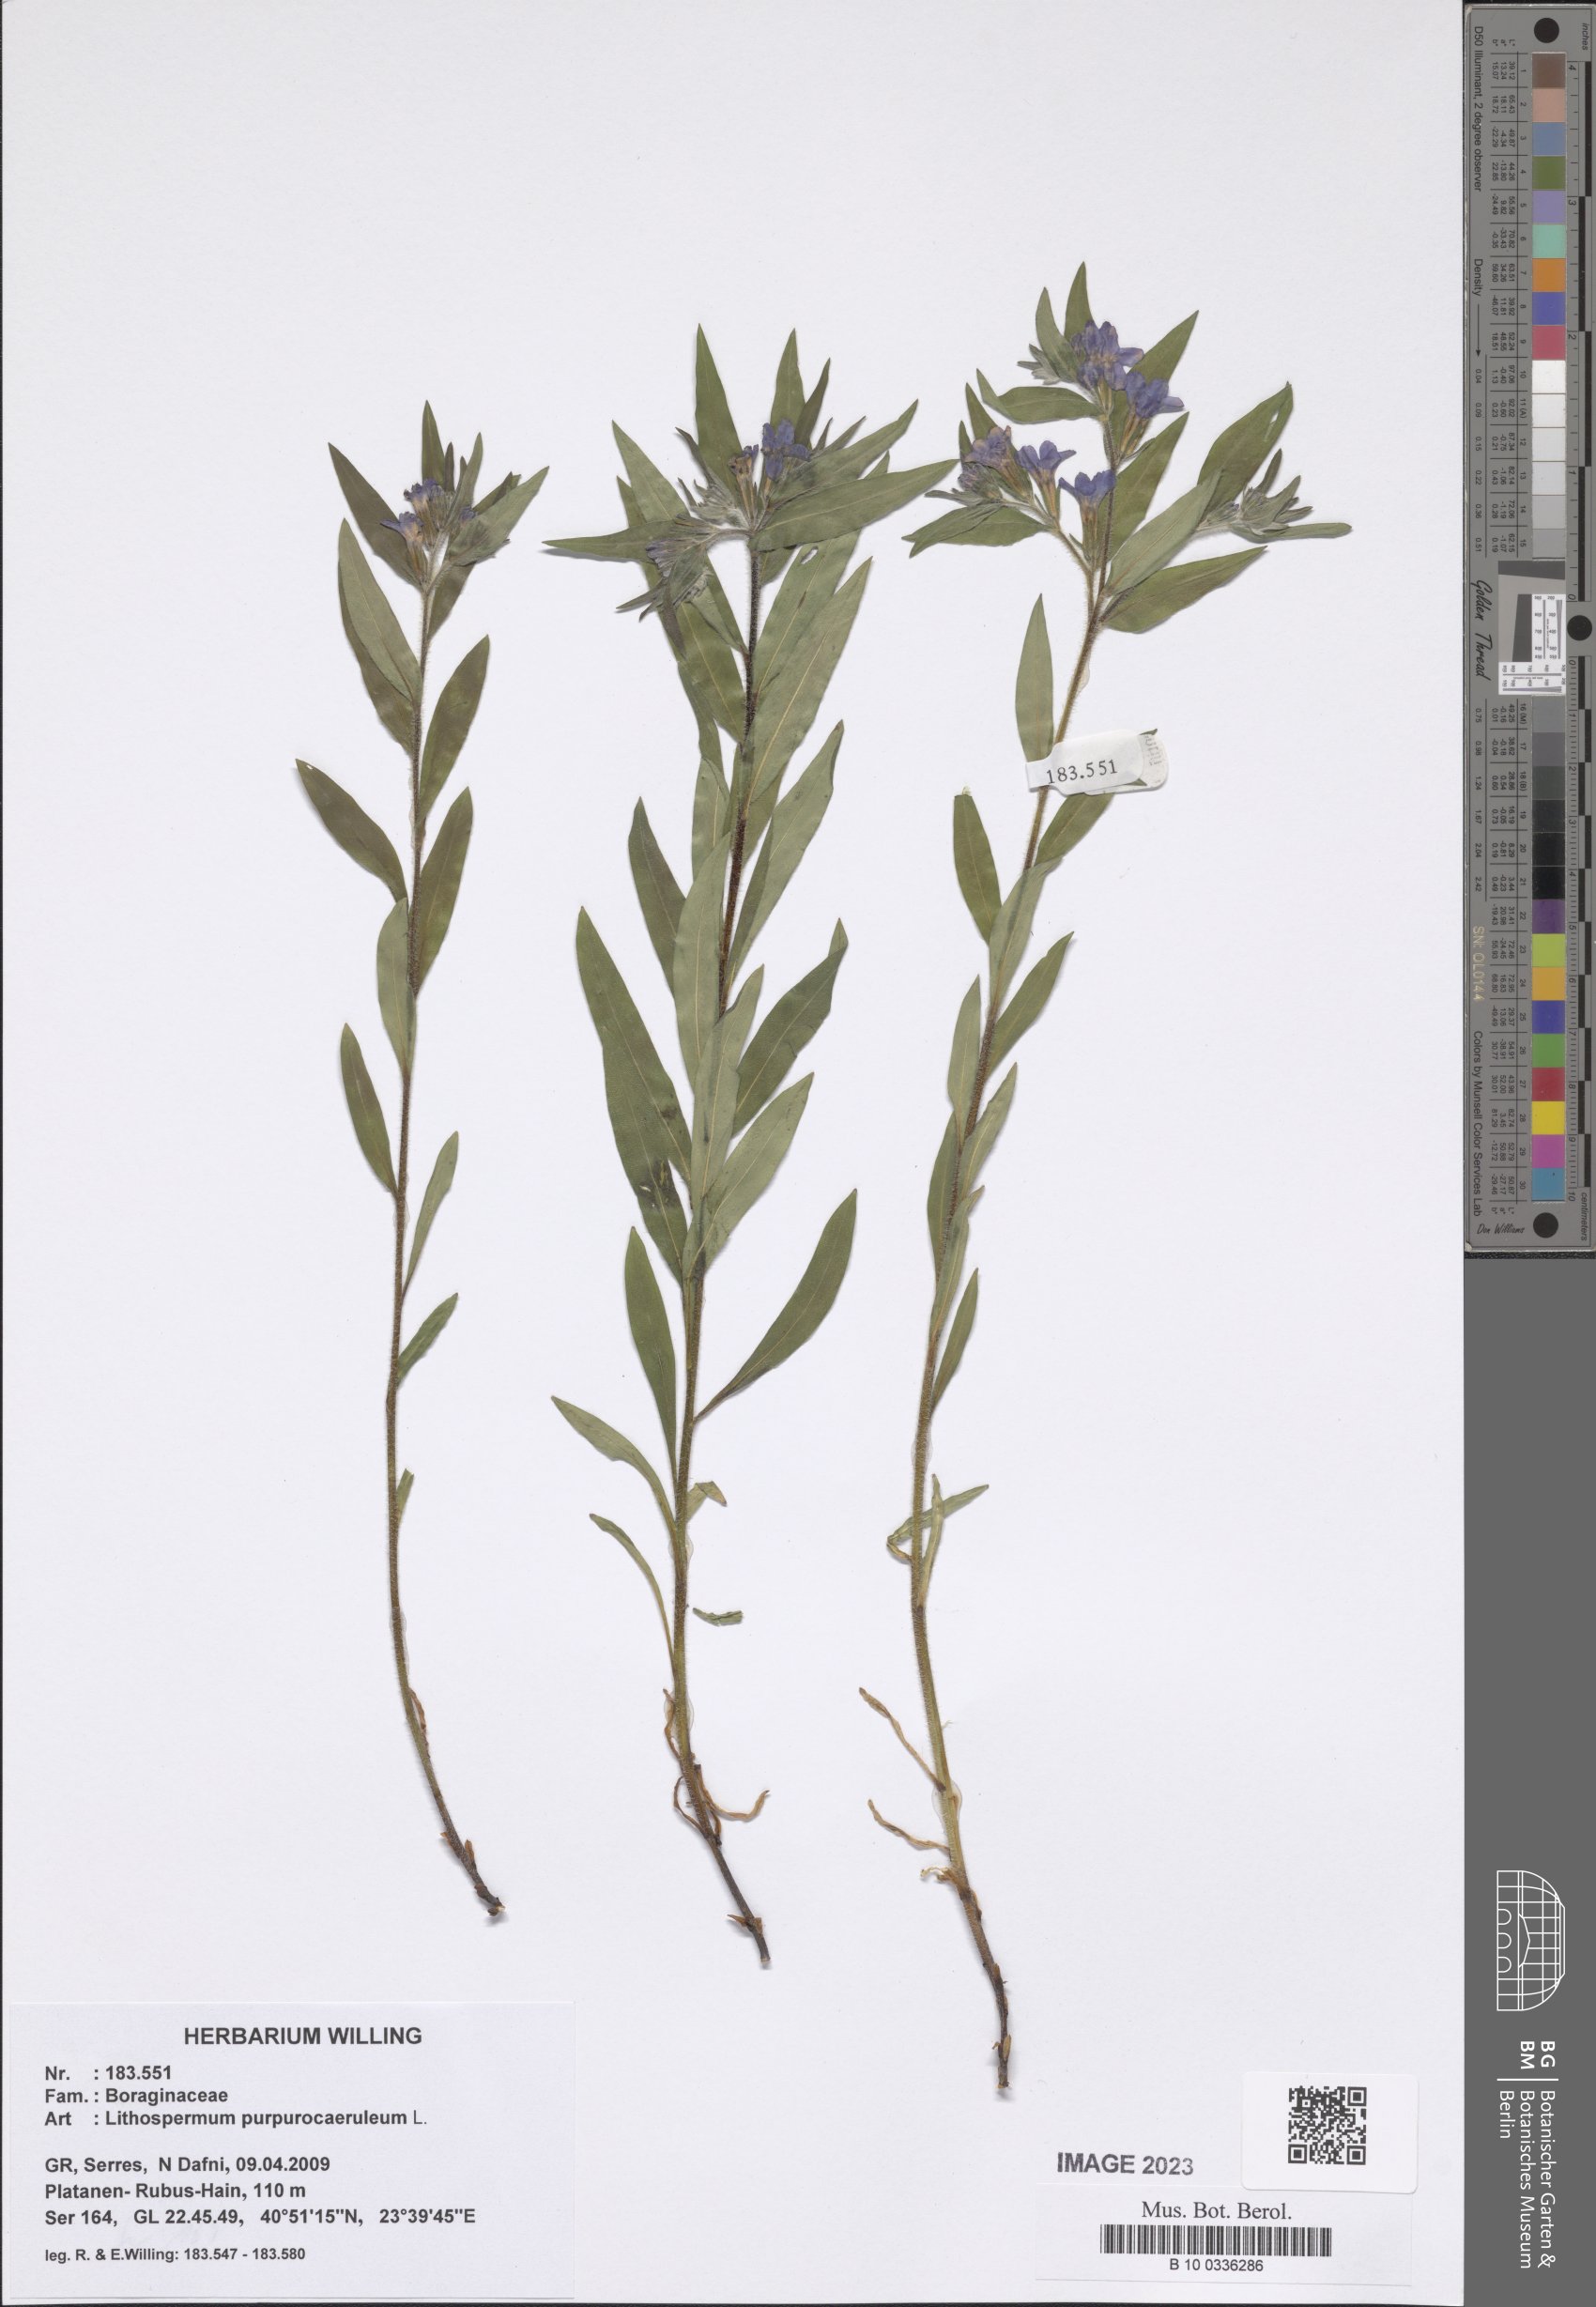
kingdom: Plantae
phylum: Tracheophyta
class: Magnoliopsida
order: Boraginales
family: Boraginaceae
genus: Aegonychon
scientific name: Aegonychon purpurocaeruleum
